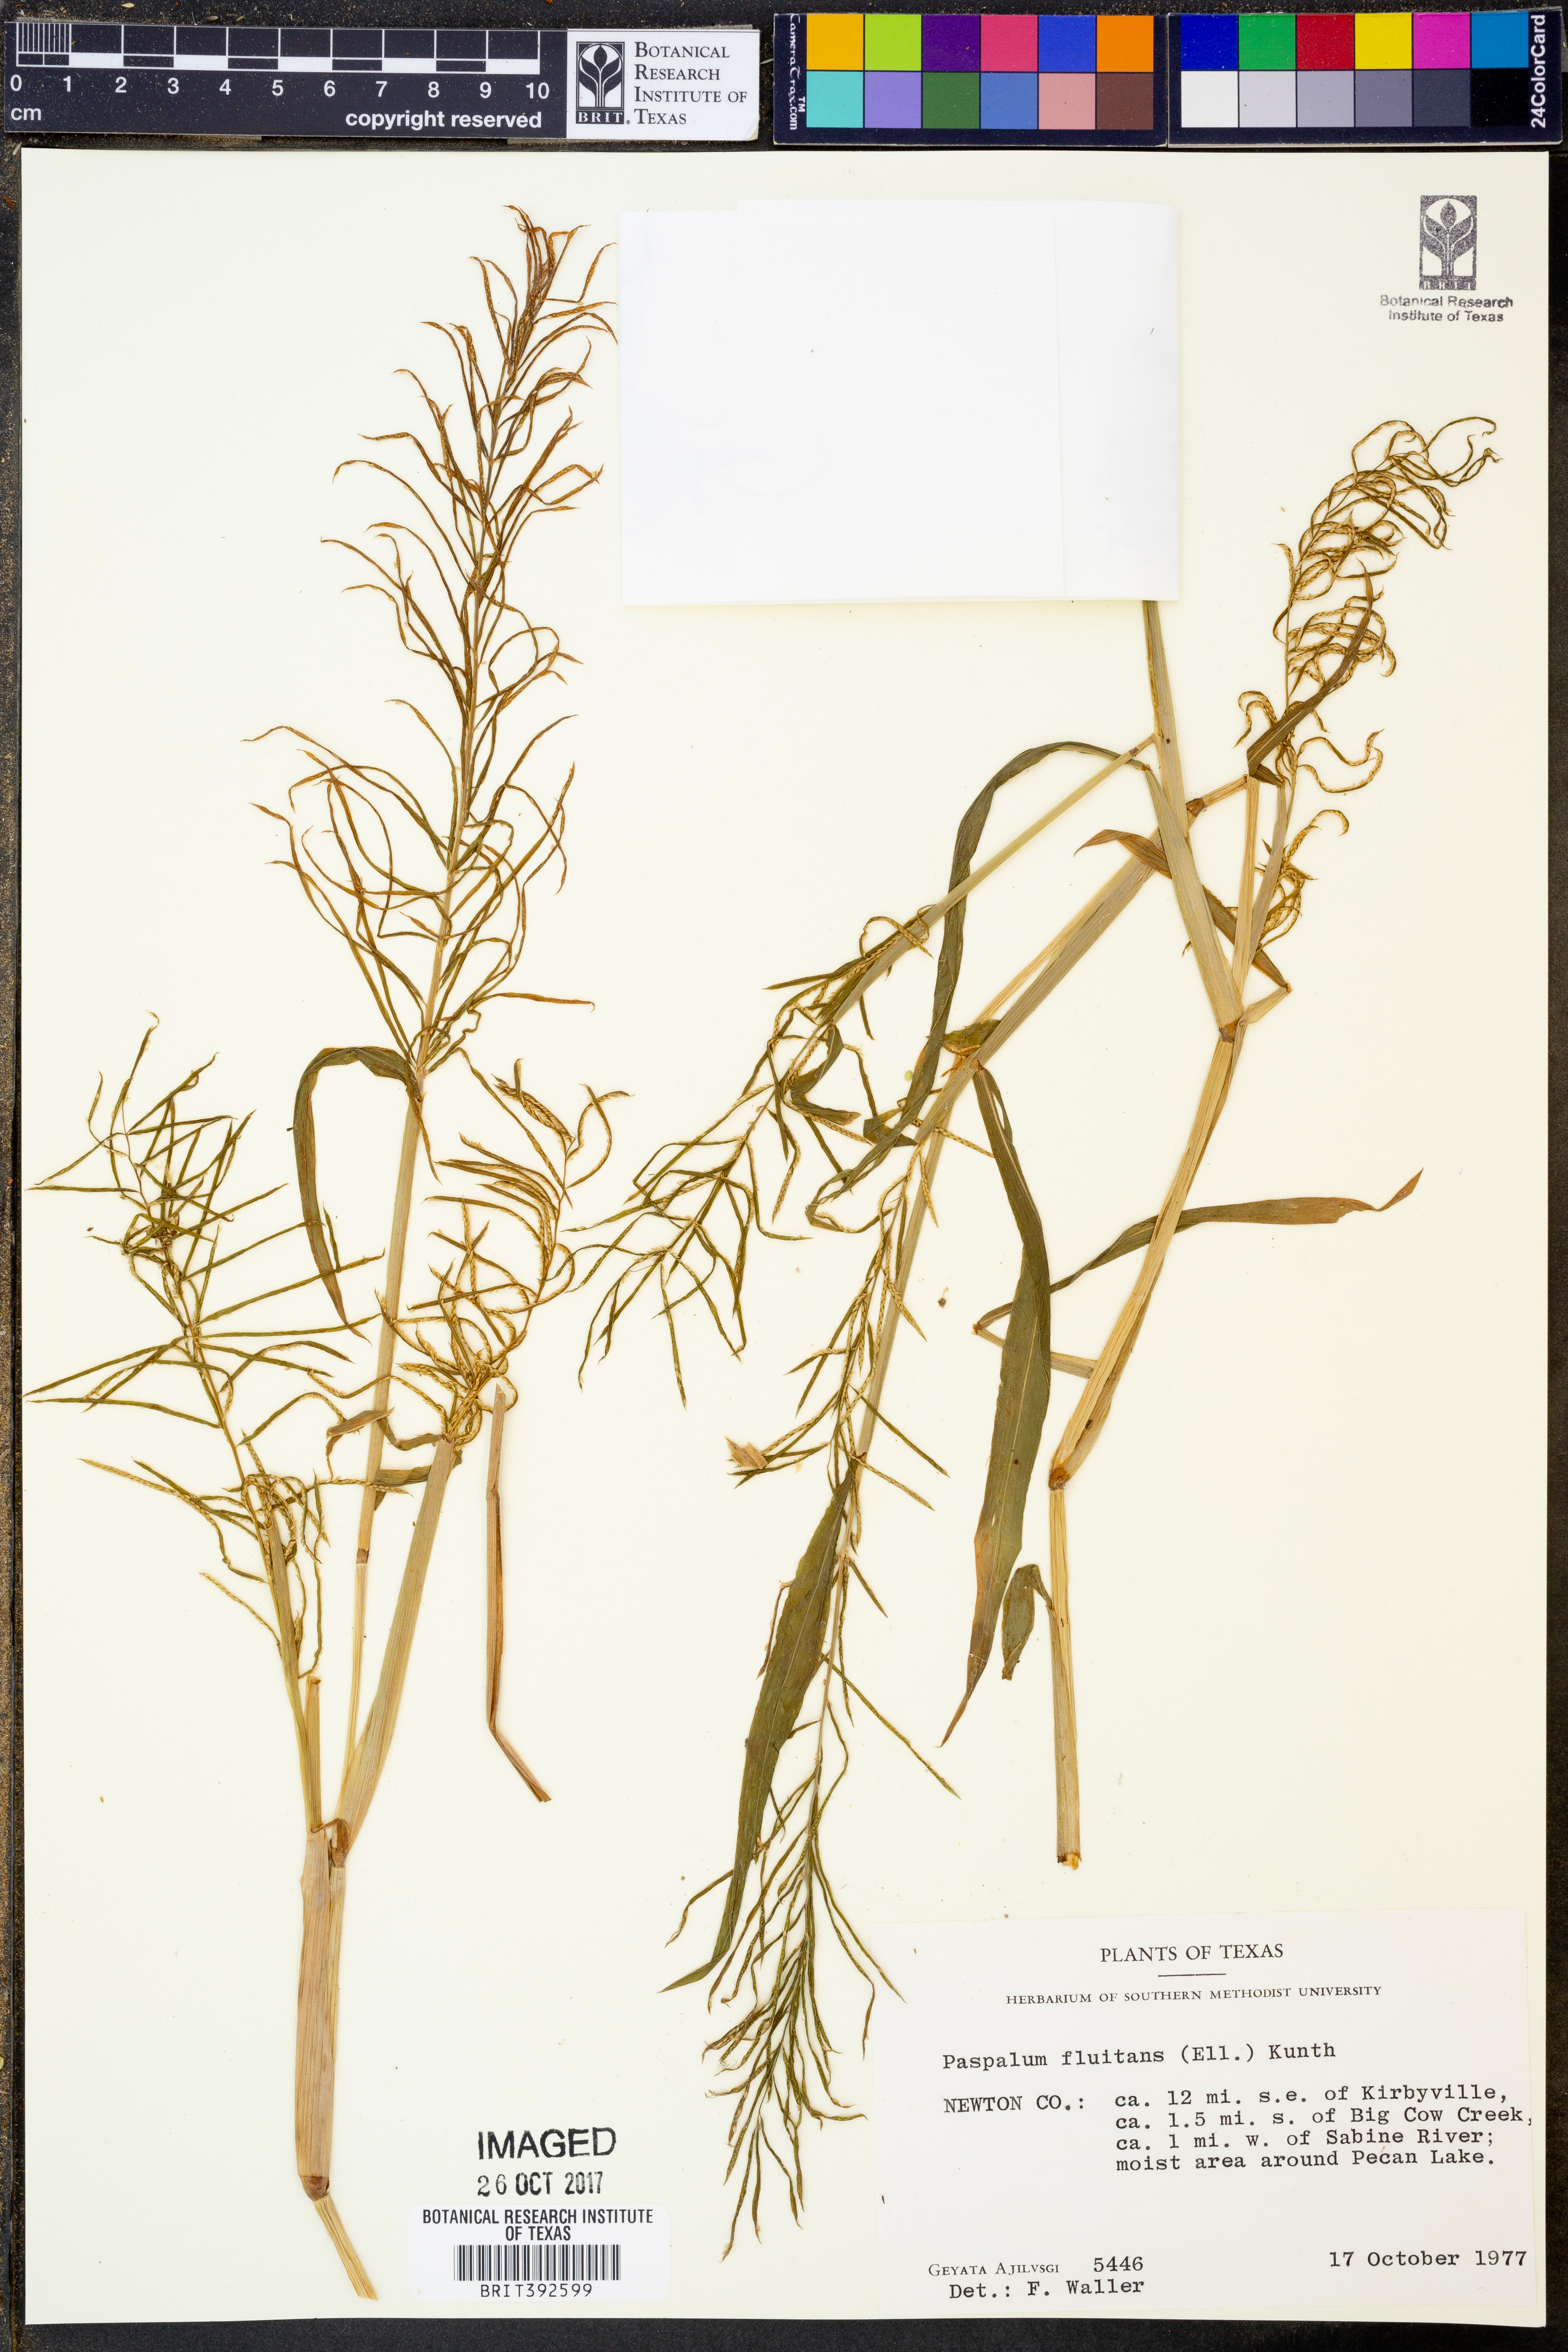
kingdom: Plantae
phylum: Tracheophyta
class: Liliopsida
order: Poales
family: Poaceae
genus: Paspalum
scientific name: Paspalum repens
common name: Water paspalum
